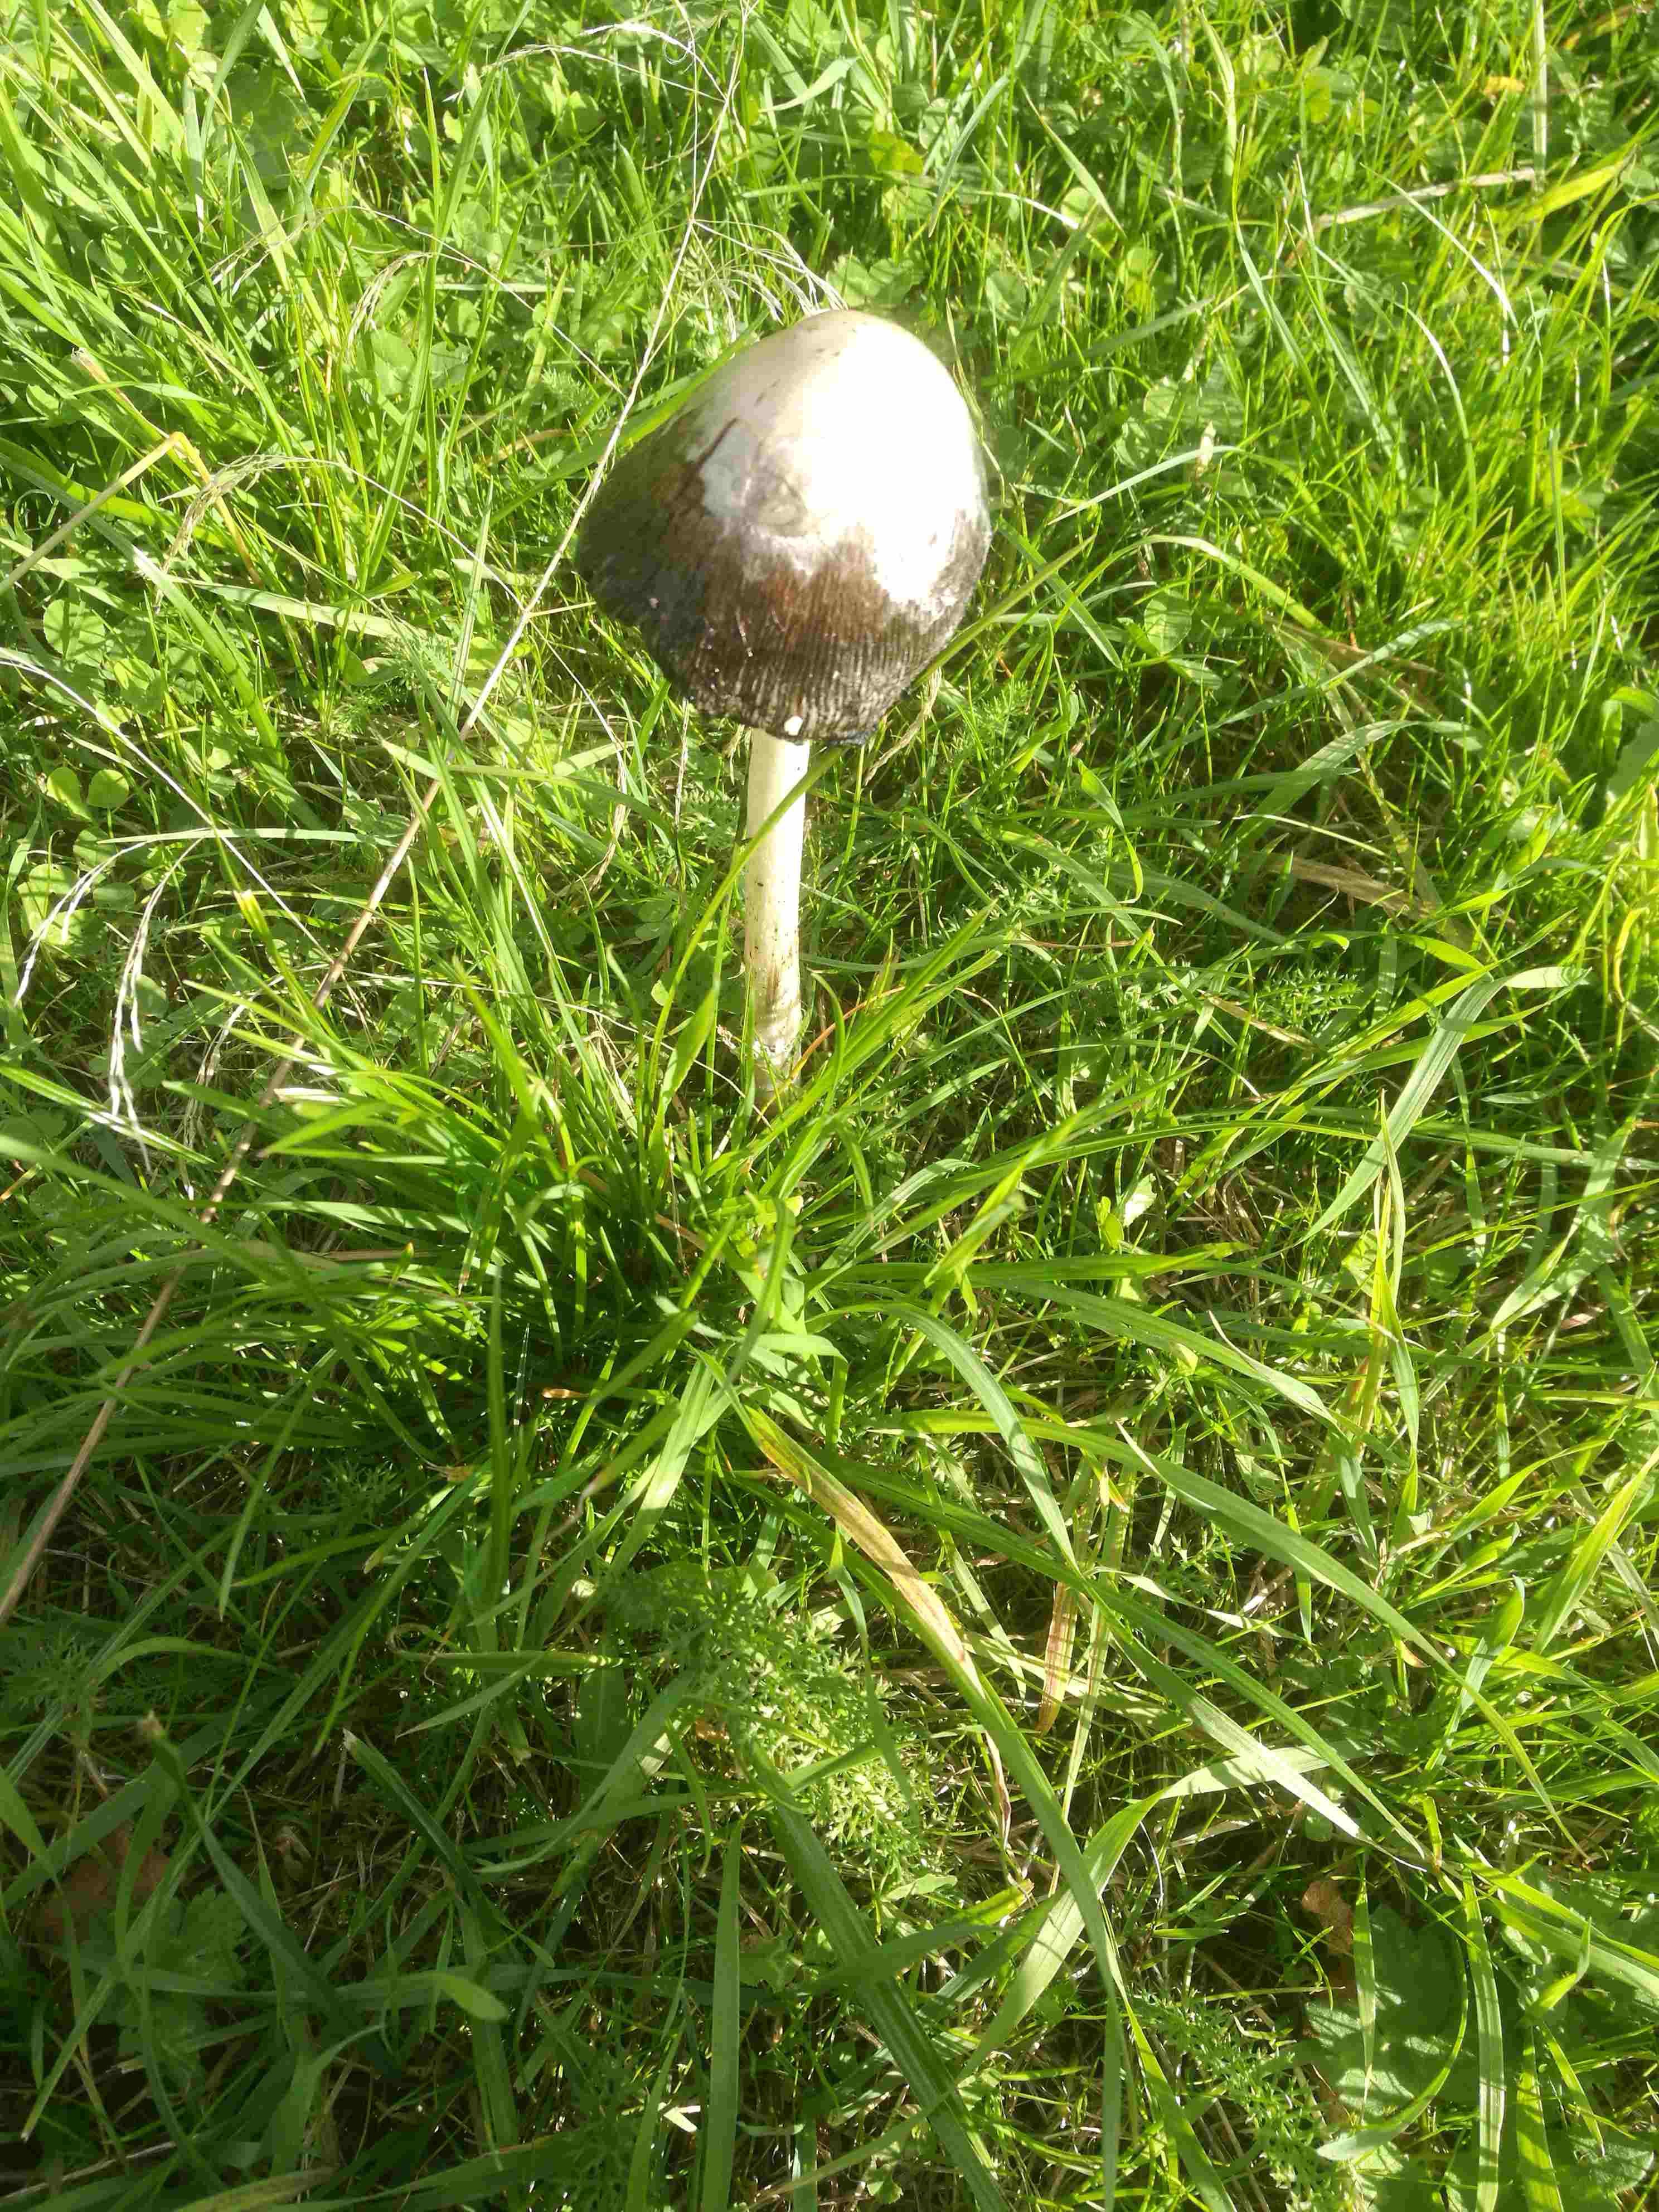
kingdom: Fungi
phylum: Basidiomycota
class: Agaricomycetes
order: Agaricales
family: Agaricaceae
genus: Coprinus
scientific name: Coprinus comatus
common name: stor parykhat
